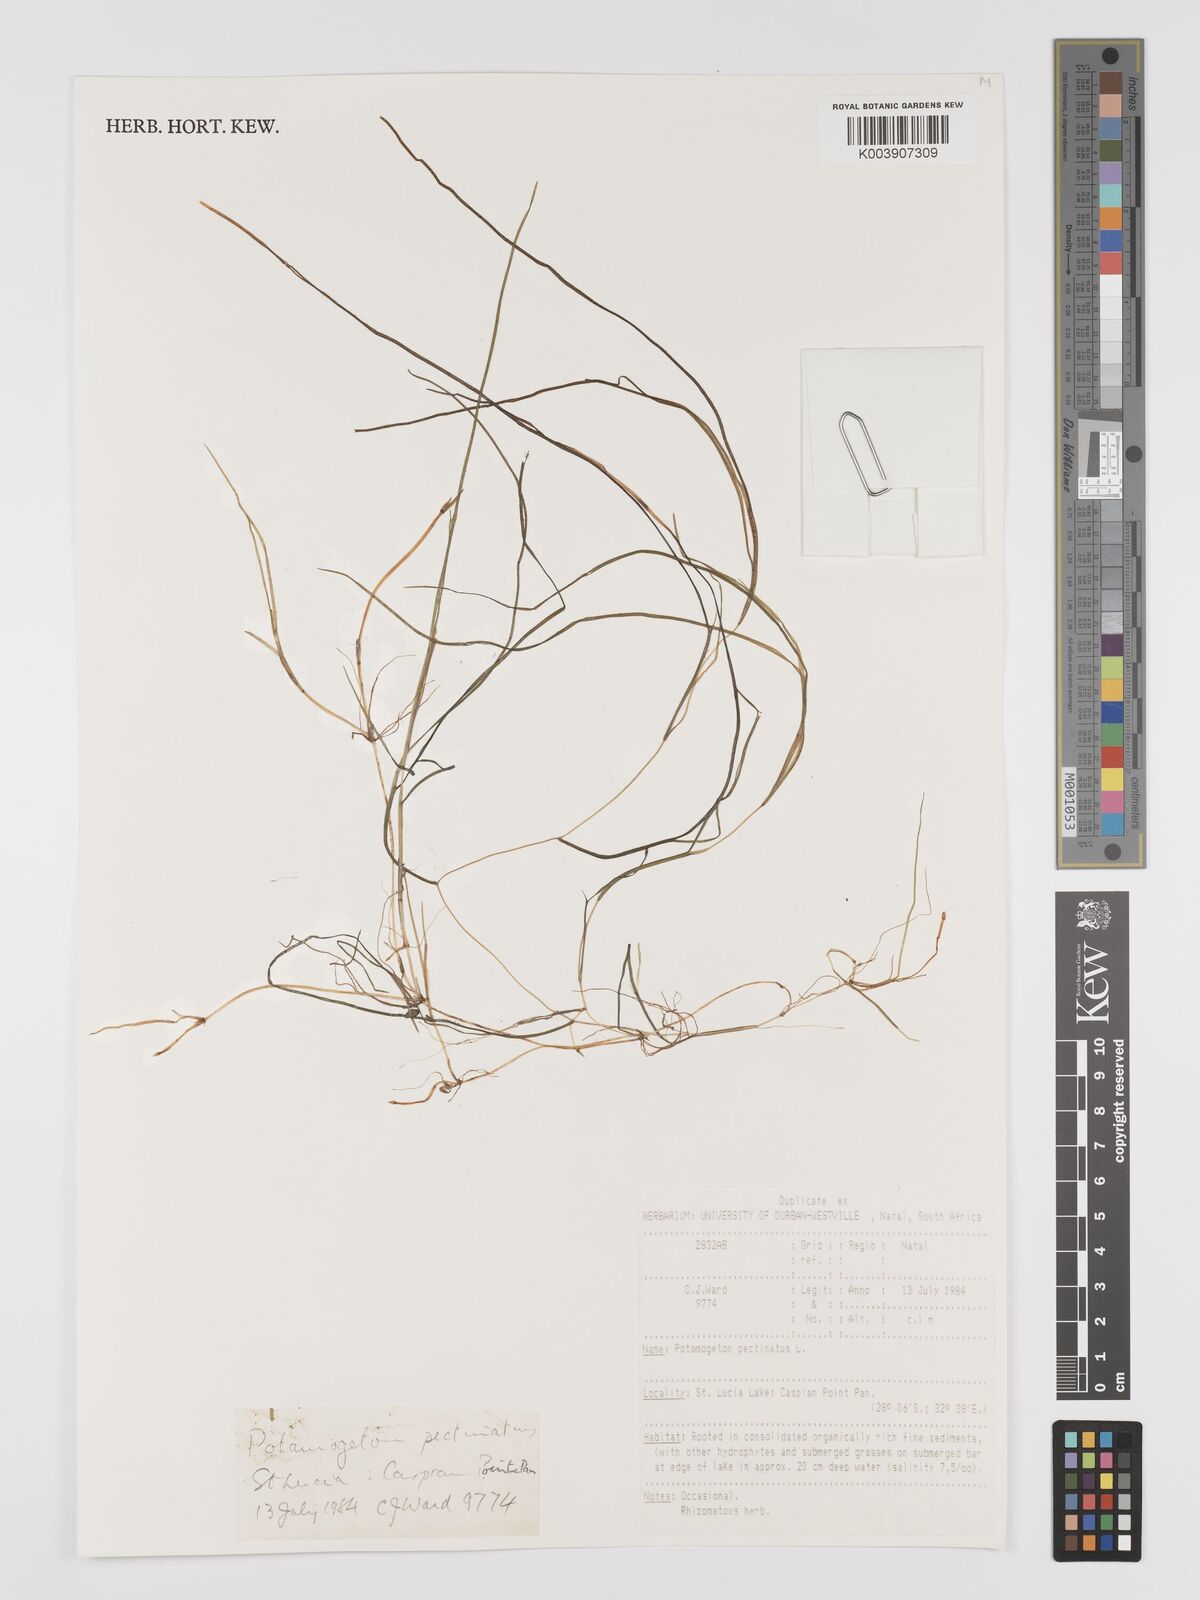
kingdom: Plantae
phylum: Tracheophyta
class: Liliopsida
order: Alismatales
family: Potamogetonaceae
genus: Stuckenia
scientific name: Stuckenia pectinata
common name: Sago pondweed
